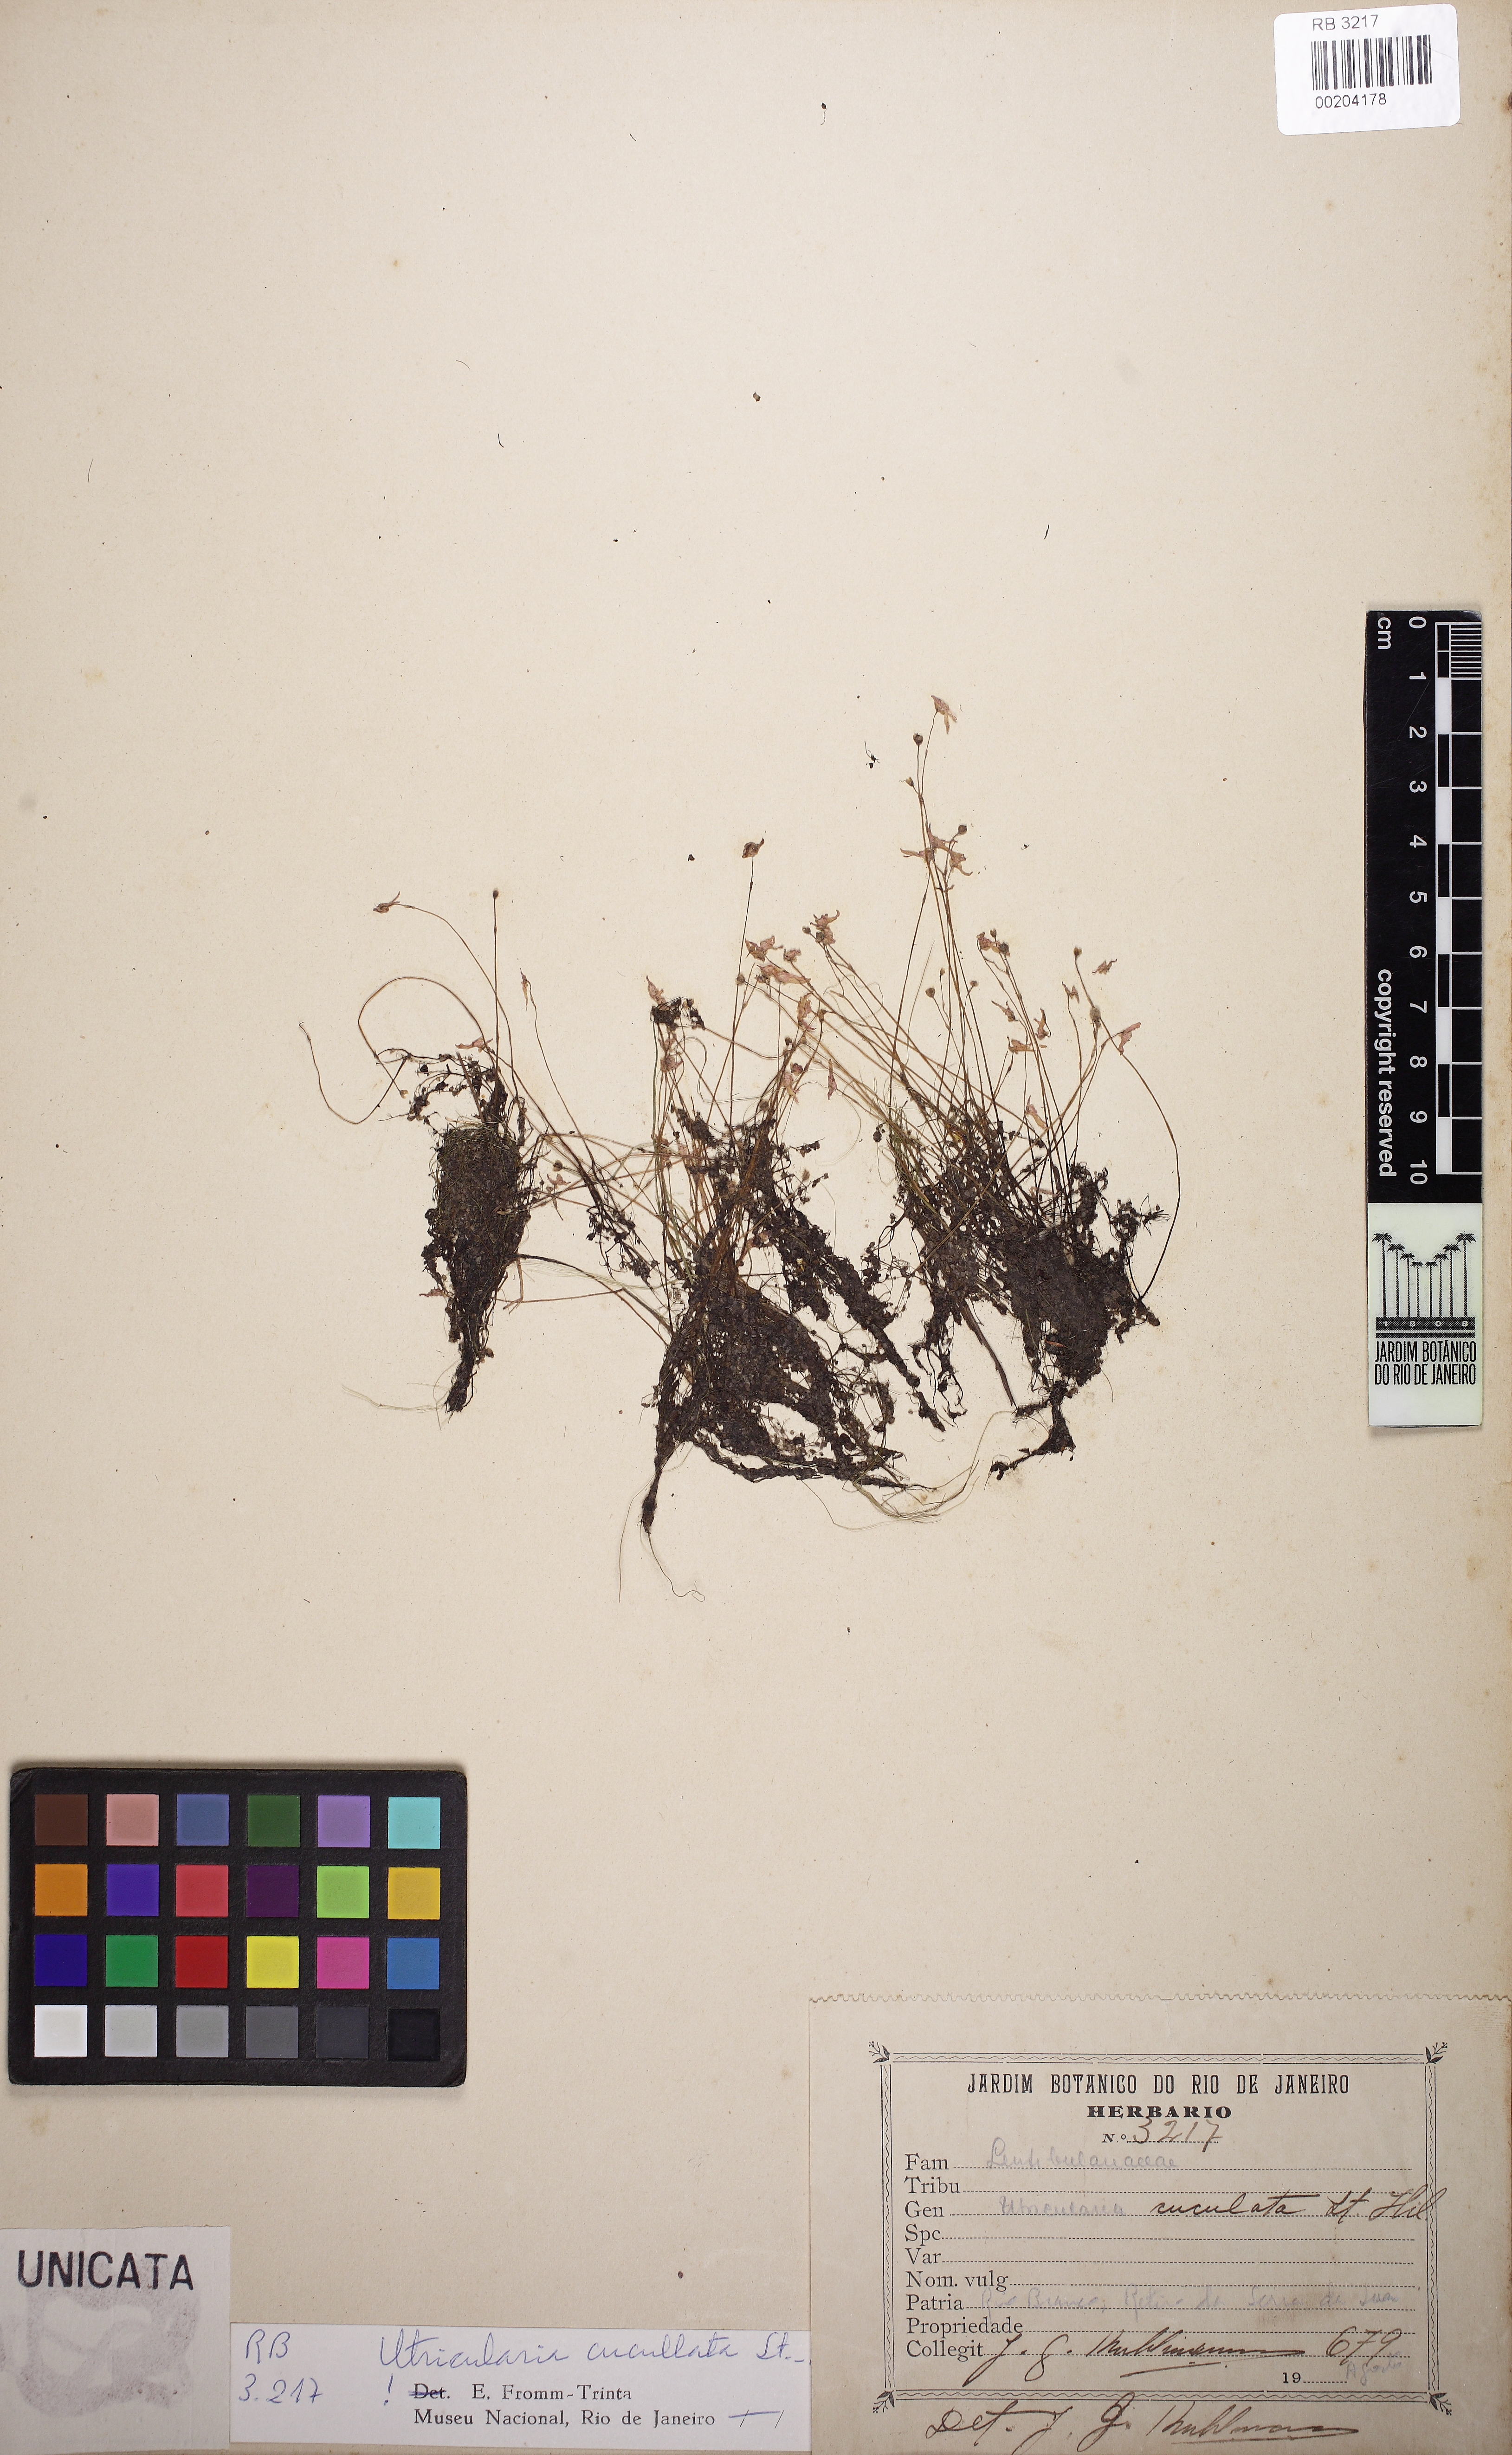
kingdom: Plantae
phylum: Tracheophyta
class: Magnoliopsida
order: Lamiales
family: Lentibulariaceae
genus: Utricularia
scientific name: Utricularia cucullata
